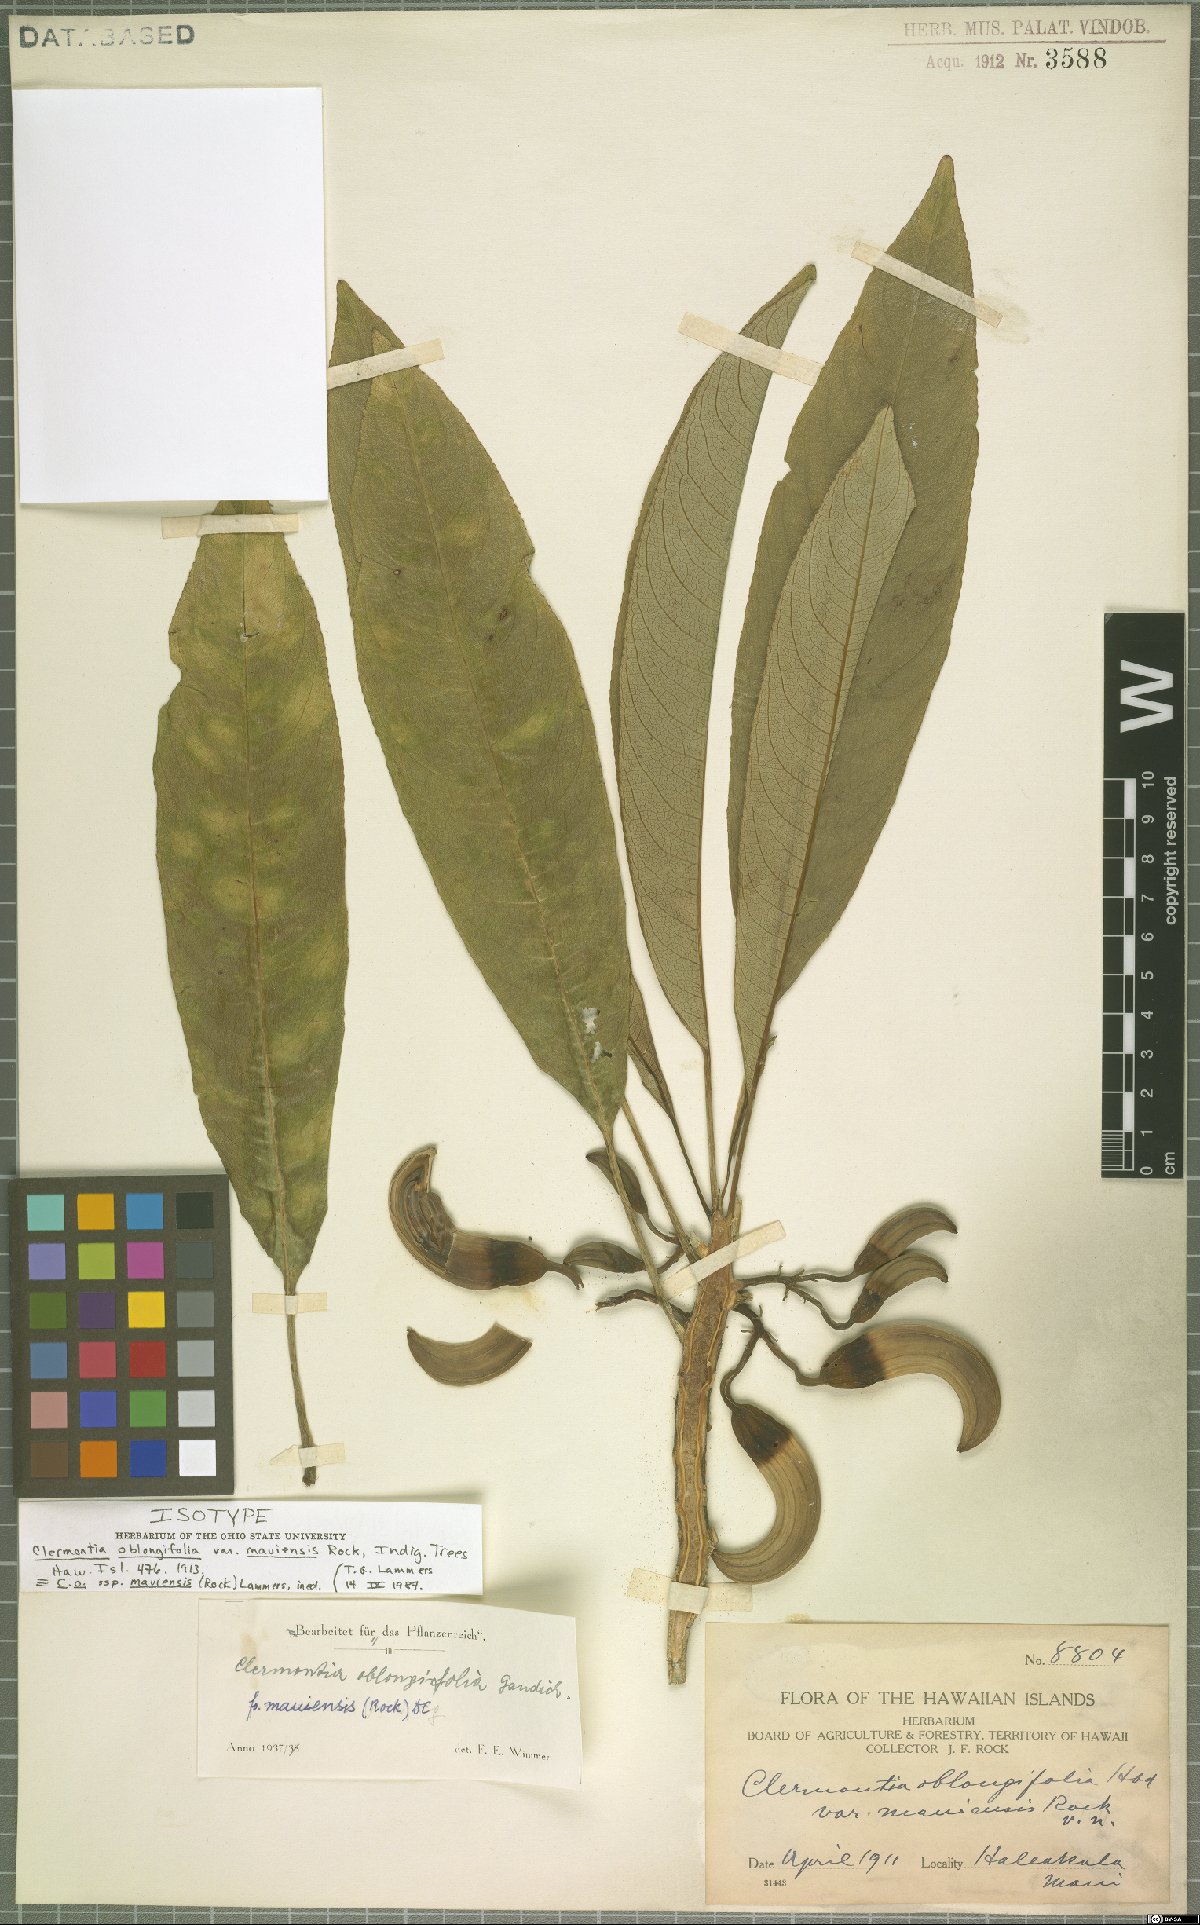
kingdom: Plantae
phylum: Tracheophyta
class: Magnoliopsida
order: Asterales
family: Campanulaceae
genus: Clermontia
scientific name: Clermontia oblongifolia
